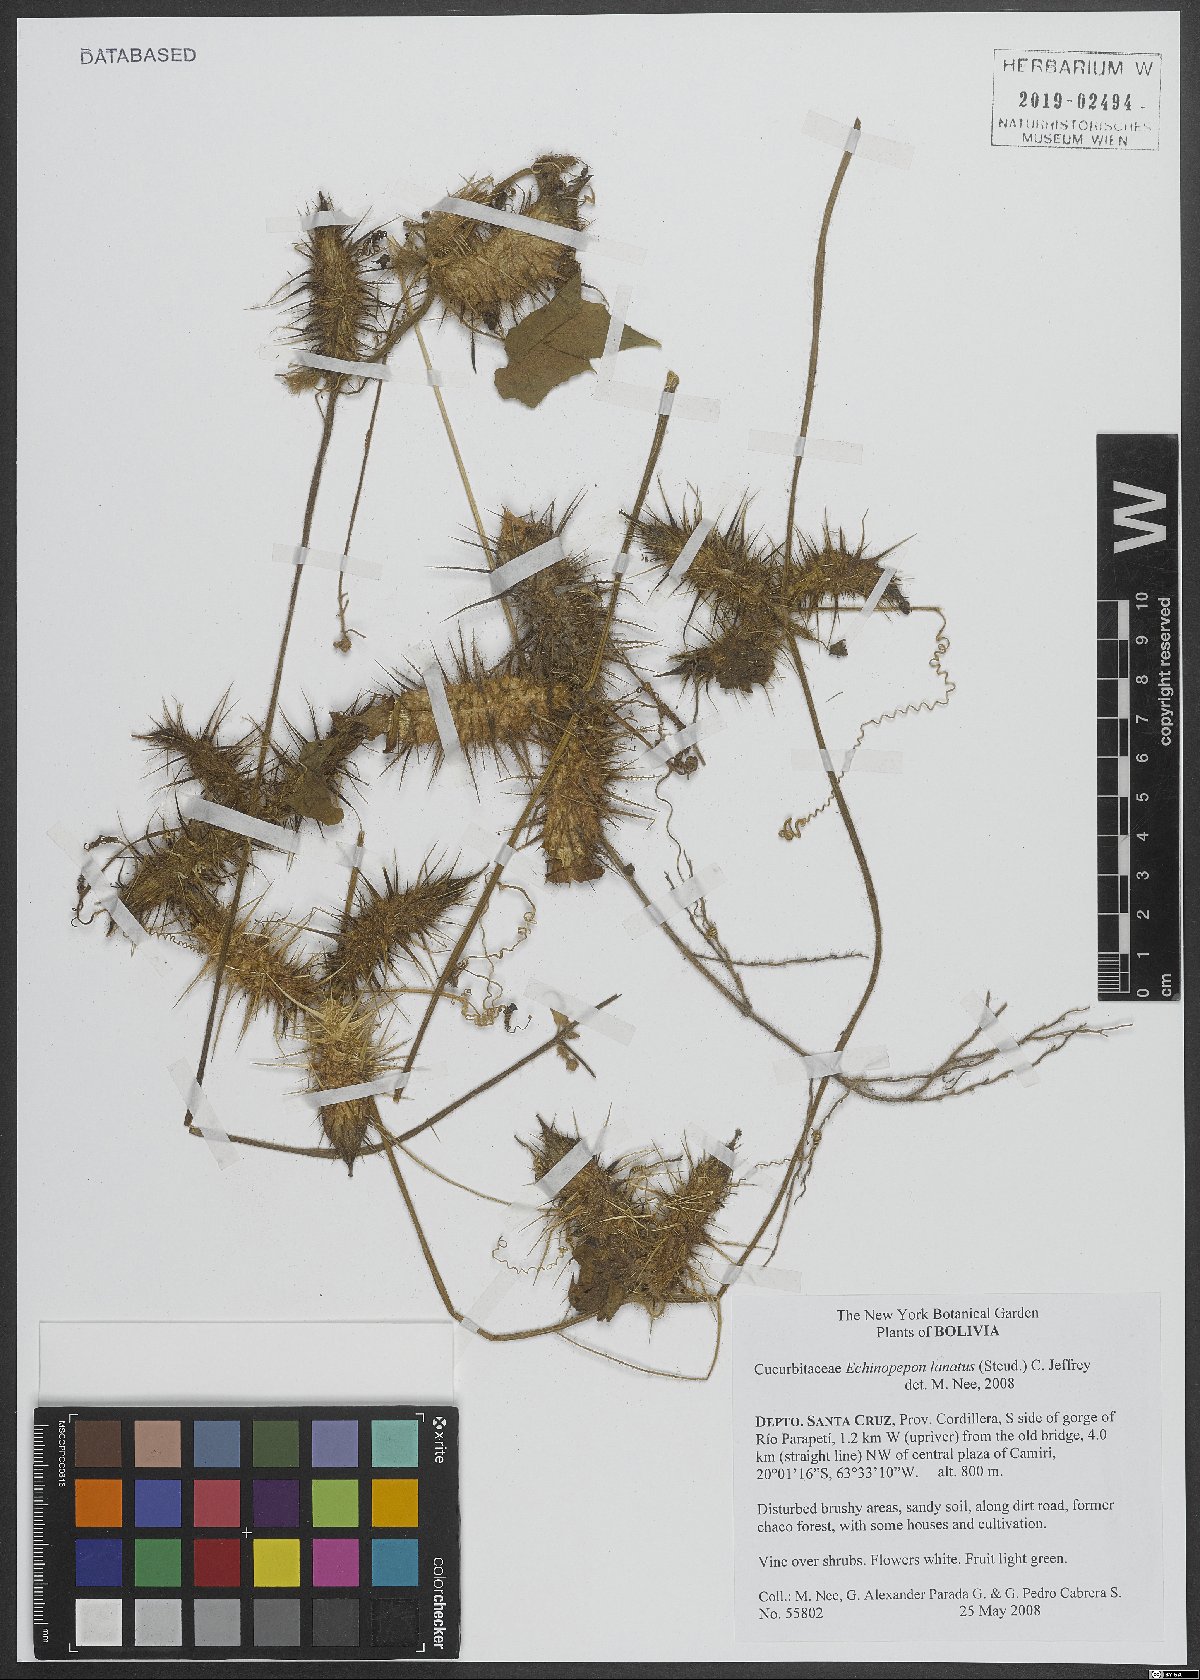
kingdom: Plantae
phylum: Tracheophyta
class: Magnoliopsida
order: Cucurbitales
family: Cucurbitaceae
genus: Echinopepon
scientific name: Echinopepon
